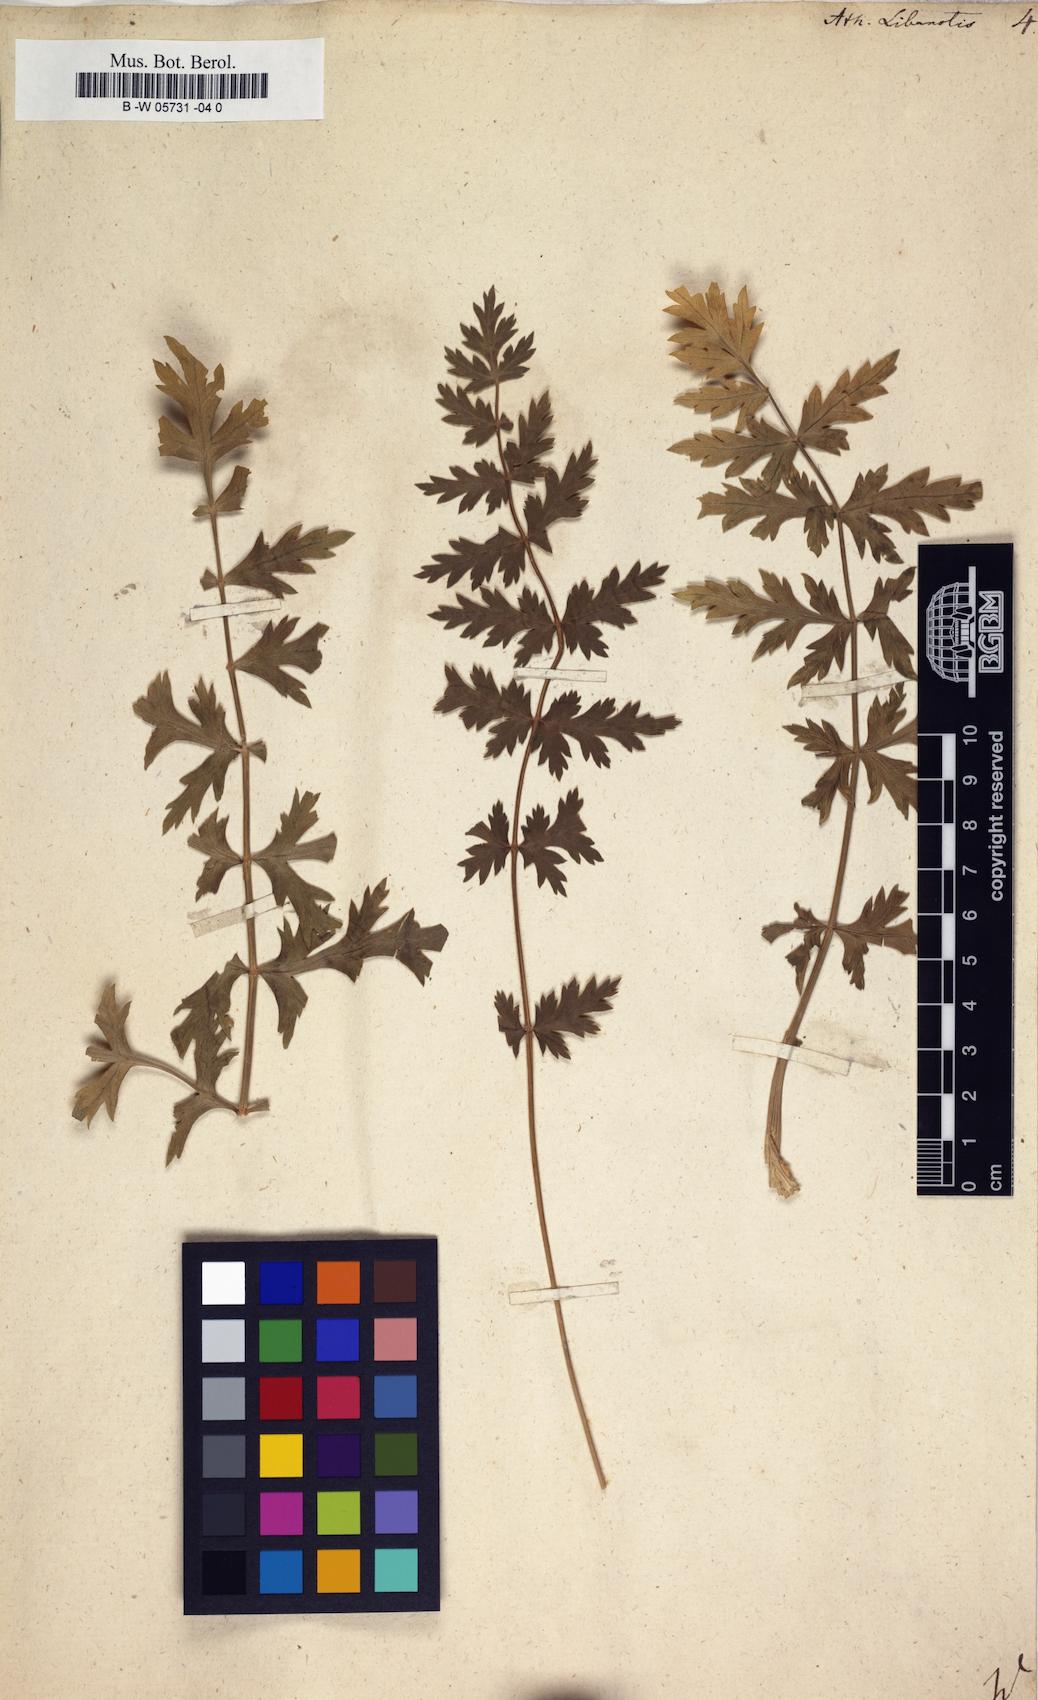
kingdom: Plantae
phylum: Tracheophyta
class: Magnoliopsida
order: Apiales
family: Apiaceae
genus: Seseli
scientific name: Seseli libanotis
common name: Mooncarrot
